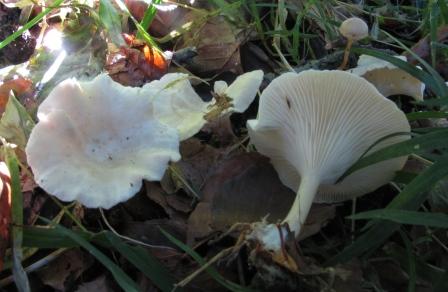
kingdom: Fungi
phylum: Basidiomycota
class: Agaricomycetes
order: Agaricales
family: Tricholomataceae
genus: Clitocybe
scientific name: Clitocybe catinus
